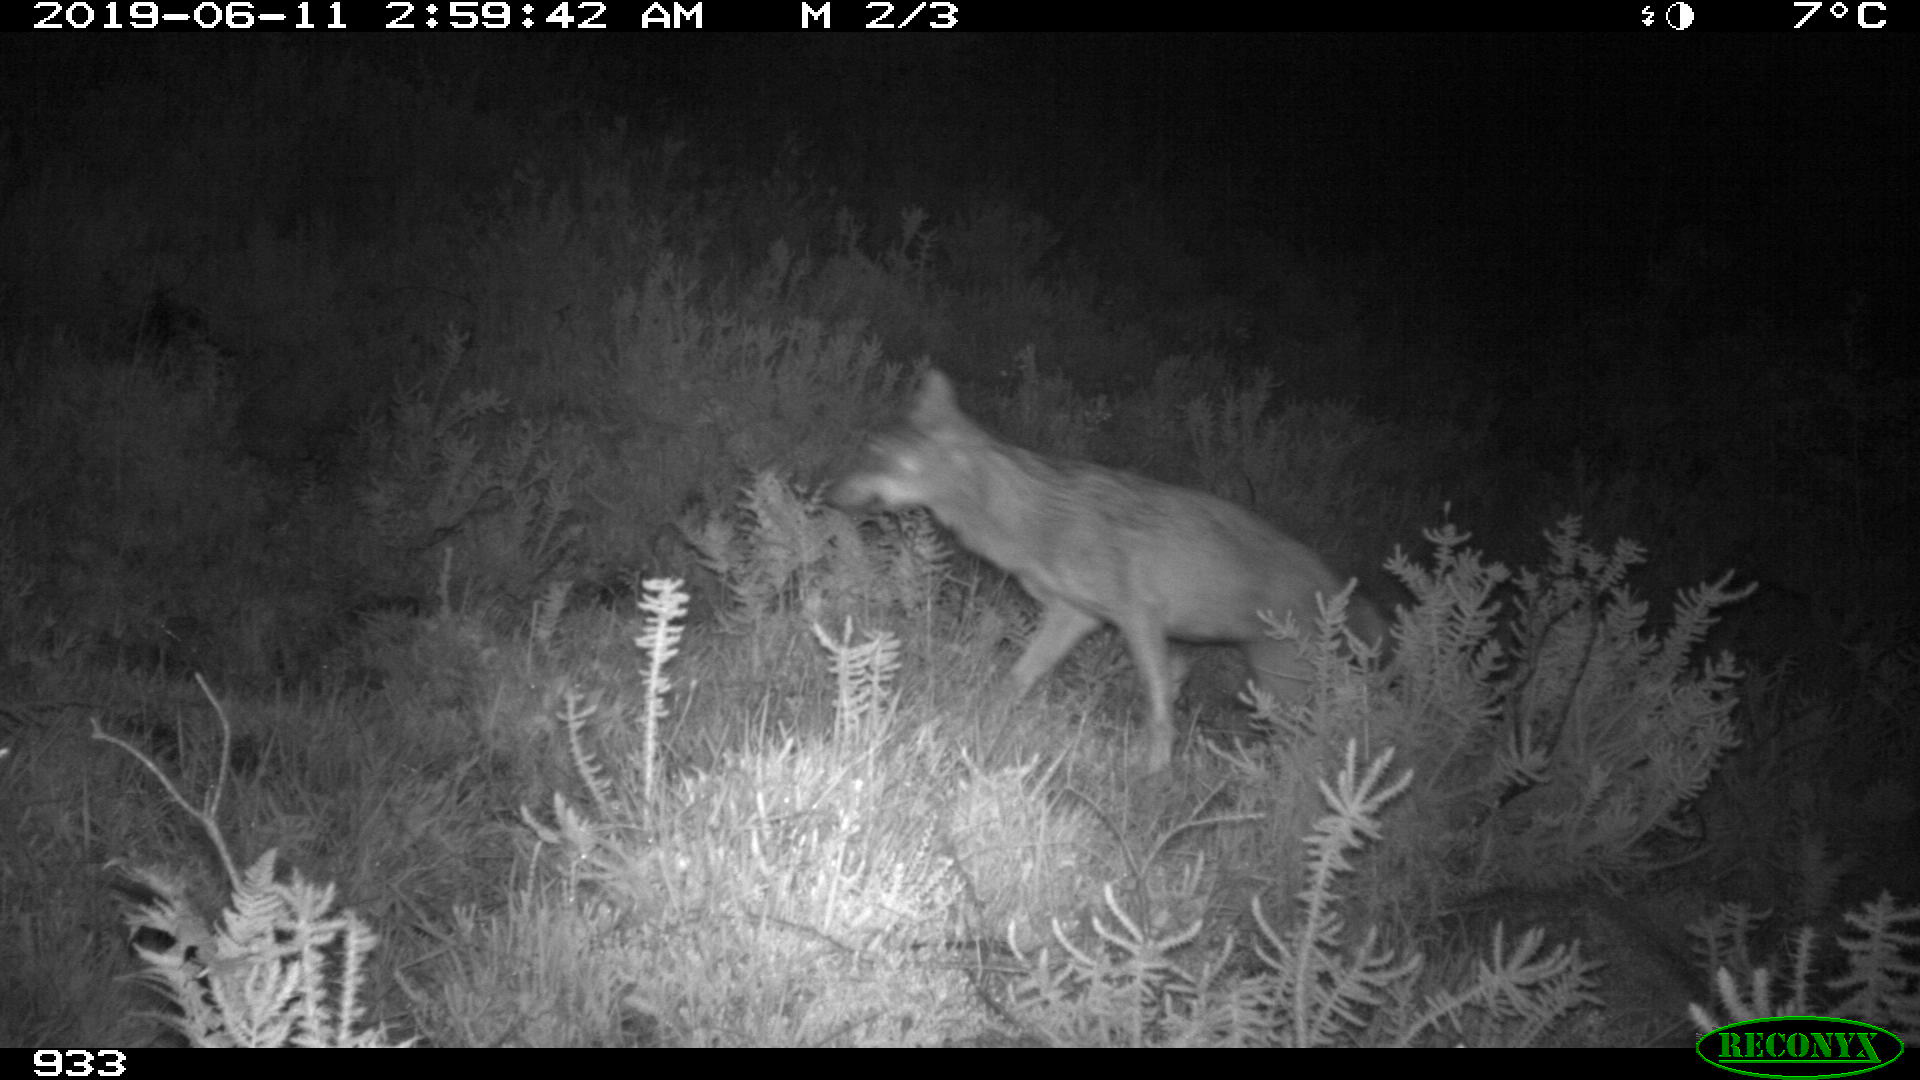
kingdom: Animalia
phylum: Chordata
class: Mammalia
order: Carnivora
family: Canidae
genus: Canis
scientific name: Canis lupus
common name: Gray wolf
